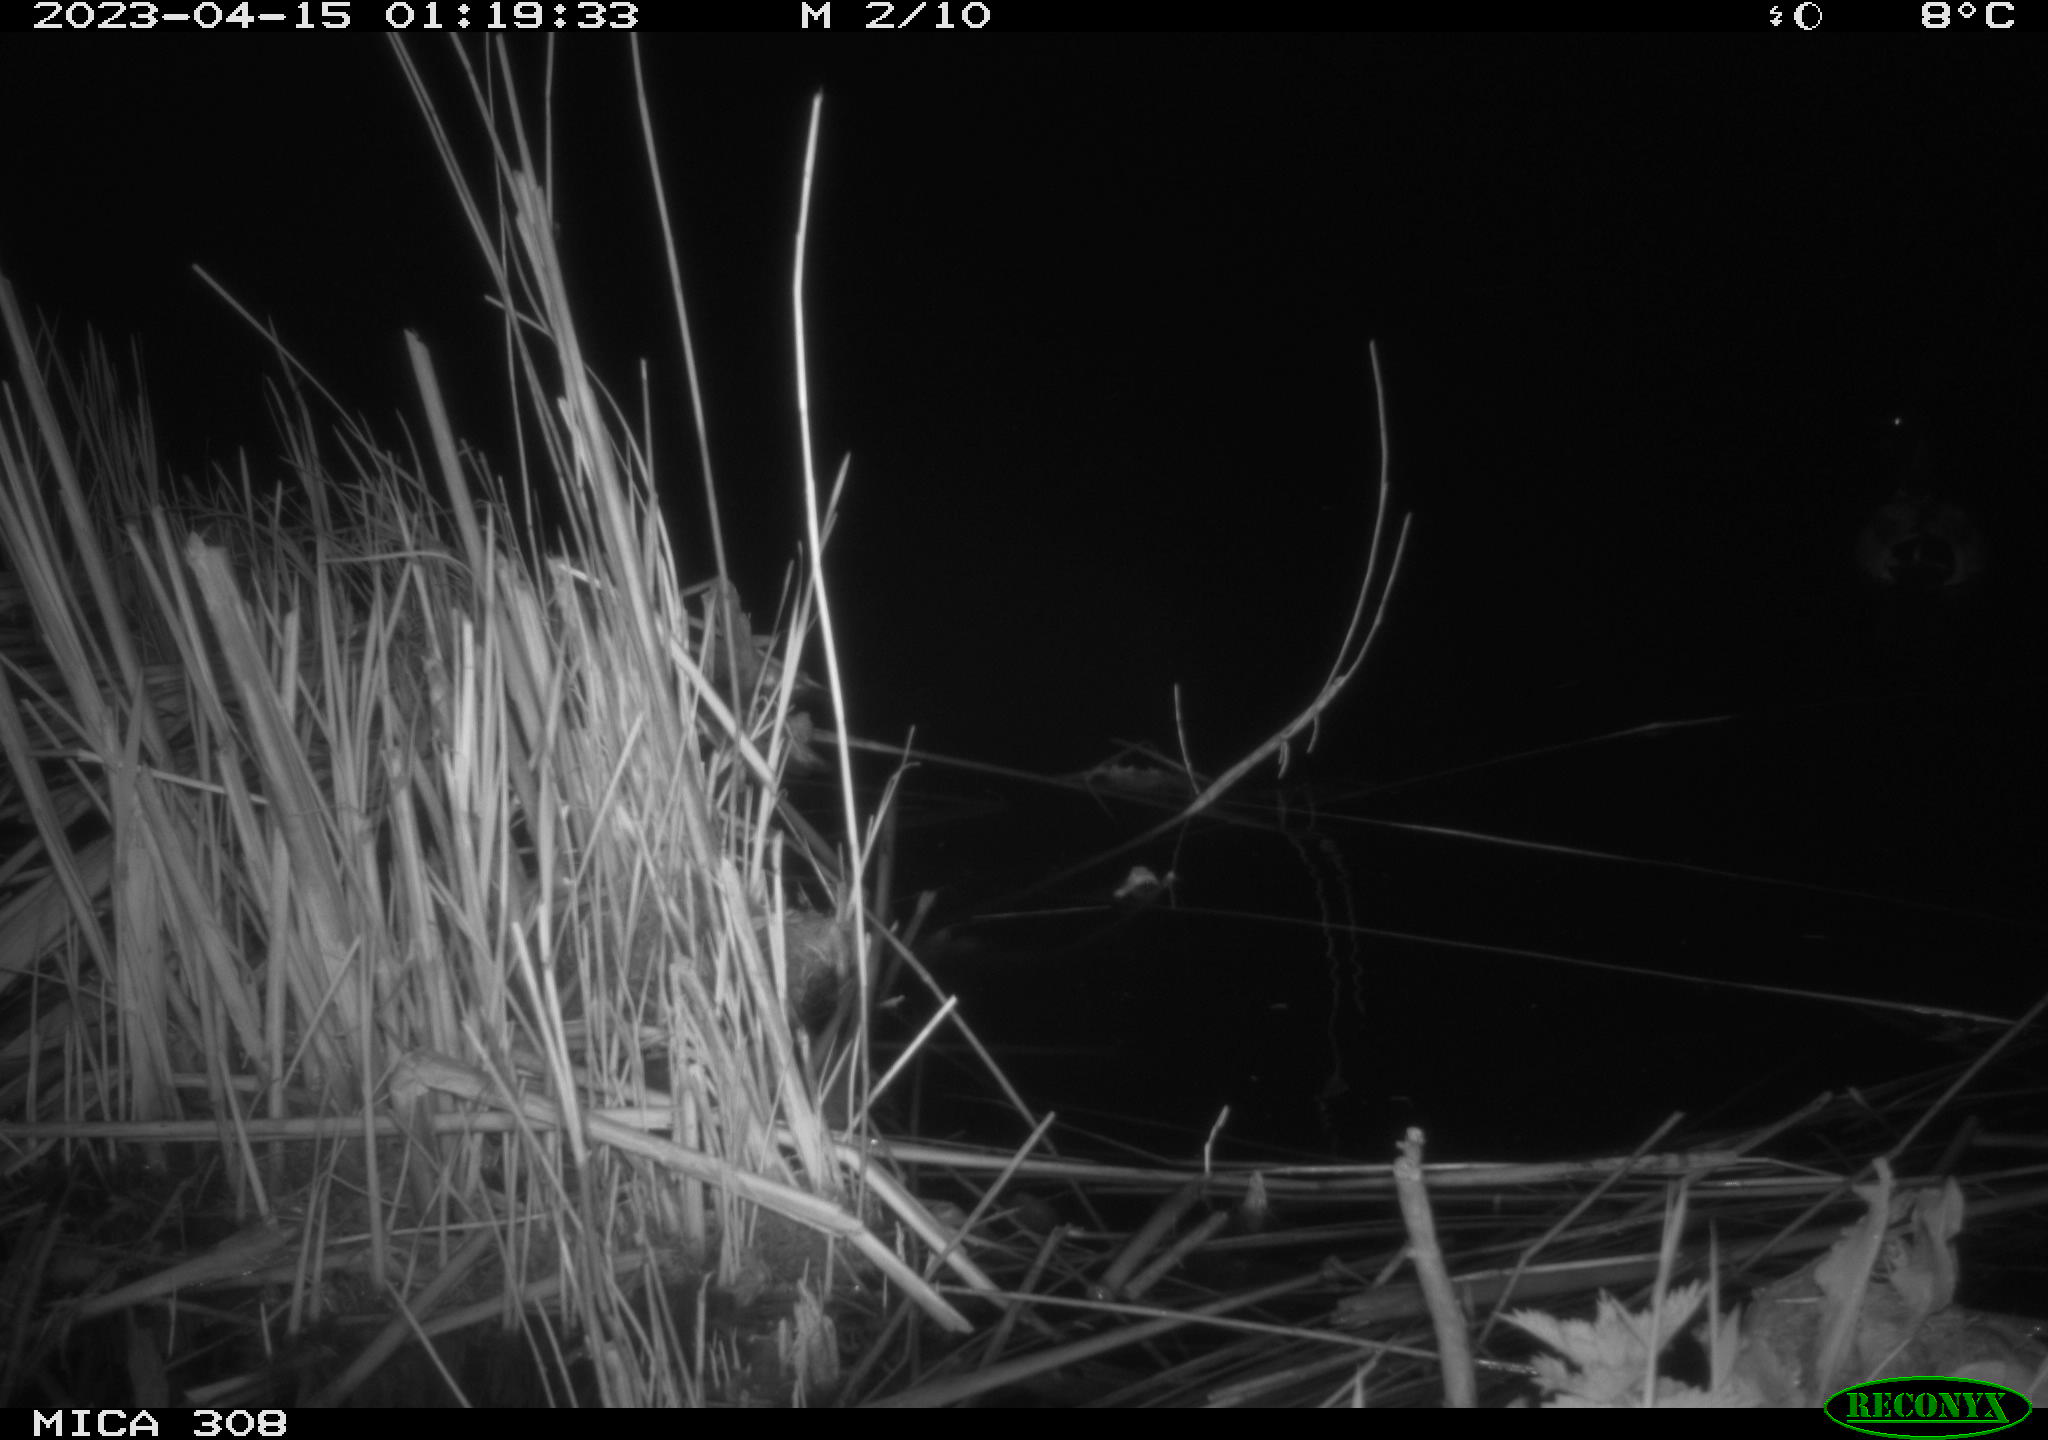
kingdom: Animalia
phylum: Chordata
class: Aves
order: Anseriformes
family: Anatidae
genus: Anas
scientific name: Anas
